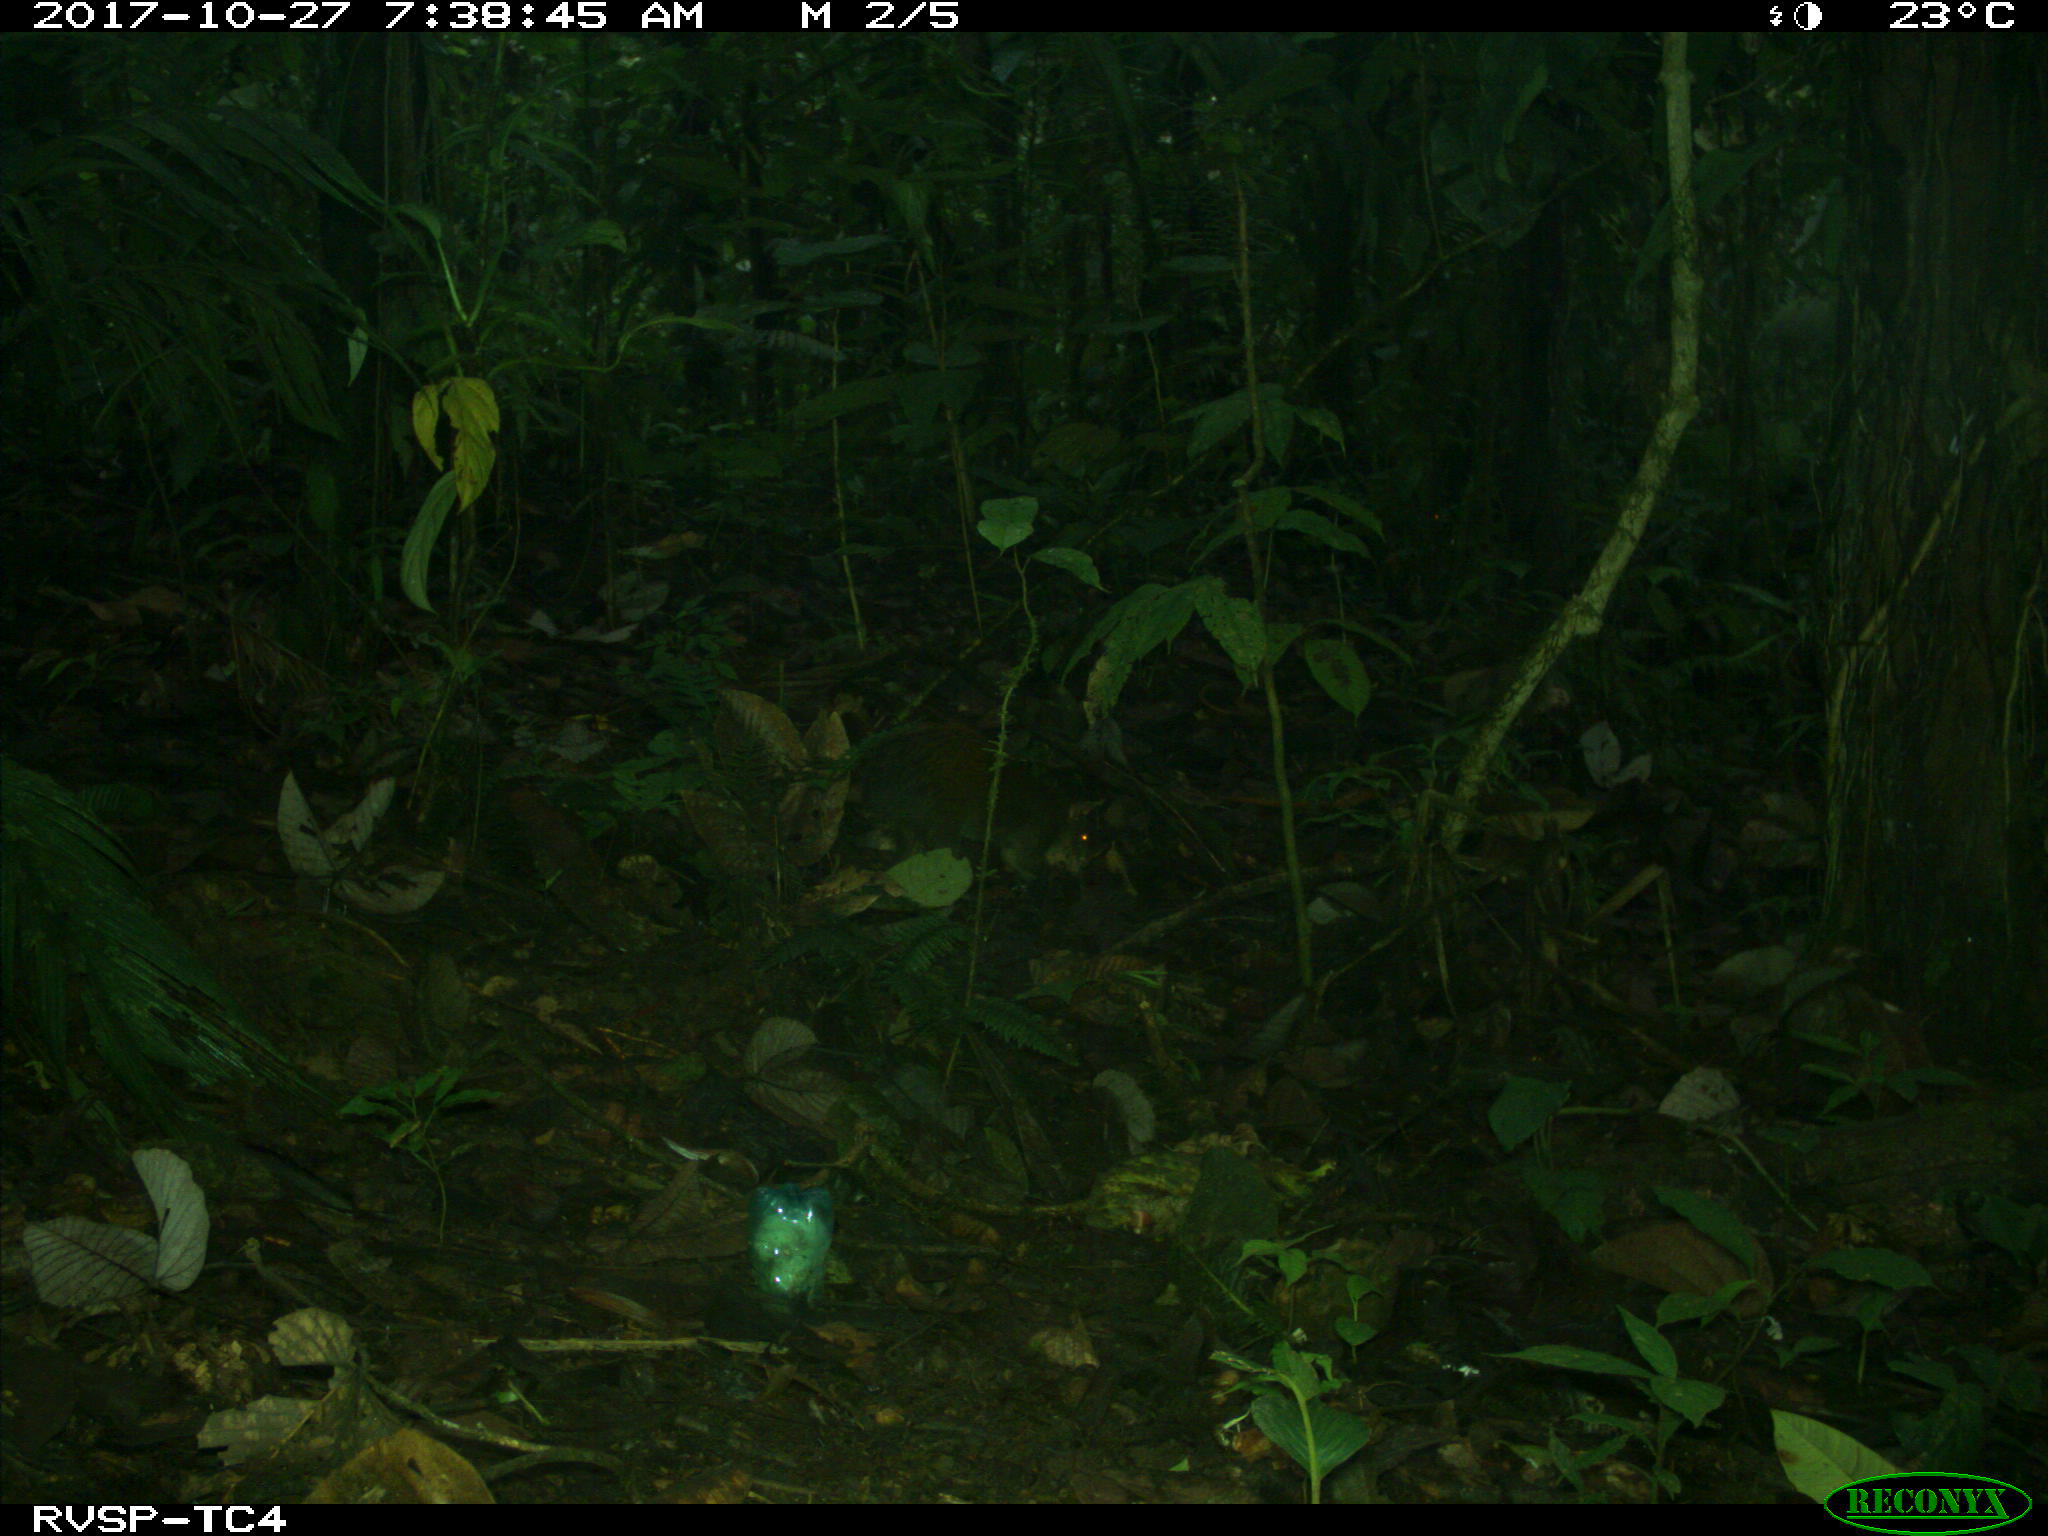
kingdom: Animalia
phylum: Chordata
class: Mammalia
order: Rodentia
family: Dasyproctidae
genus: Dasyprocta
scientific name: Dasyprocta punctata
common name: Central american agouti
